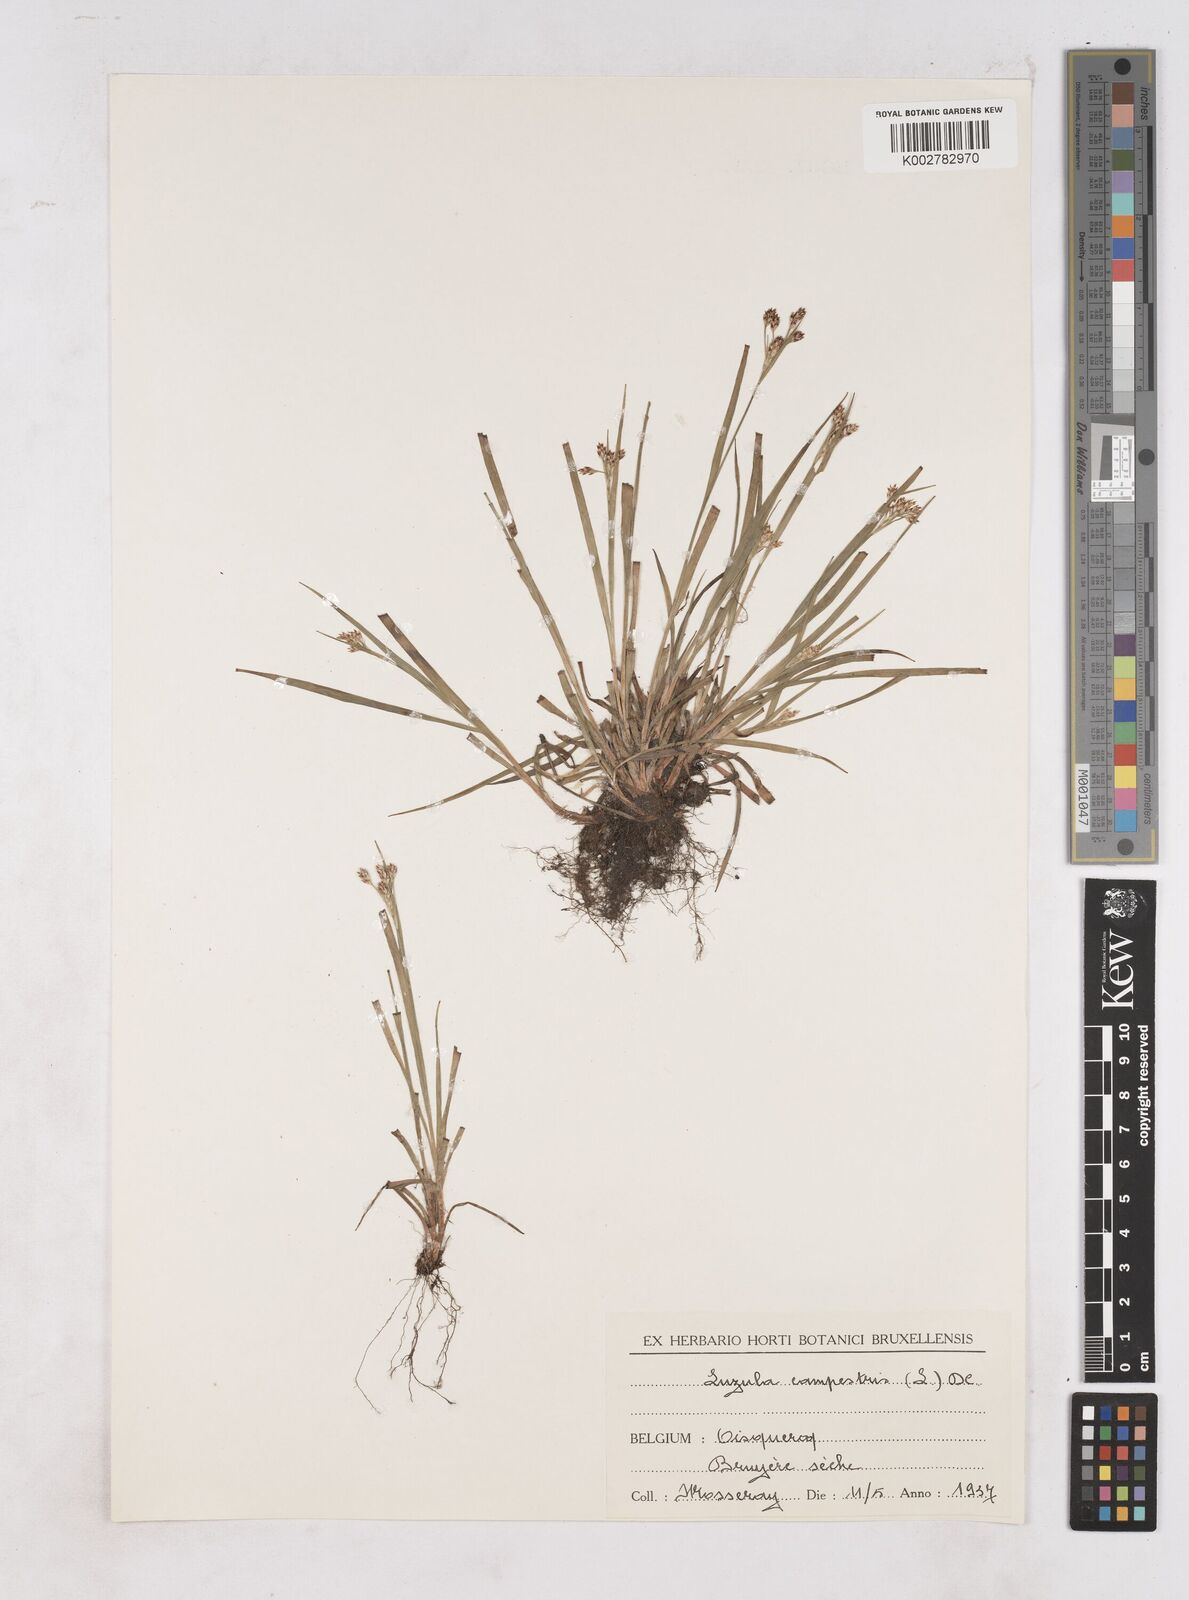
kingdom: Plantae
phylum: Tracheophyta
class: Liliopsida
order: Poales
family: Juncaceae
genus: Luzula
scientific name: Luzula campestris
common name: Field wood-rush
